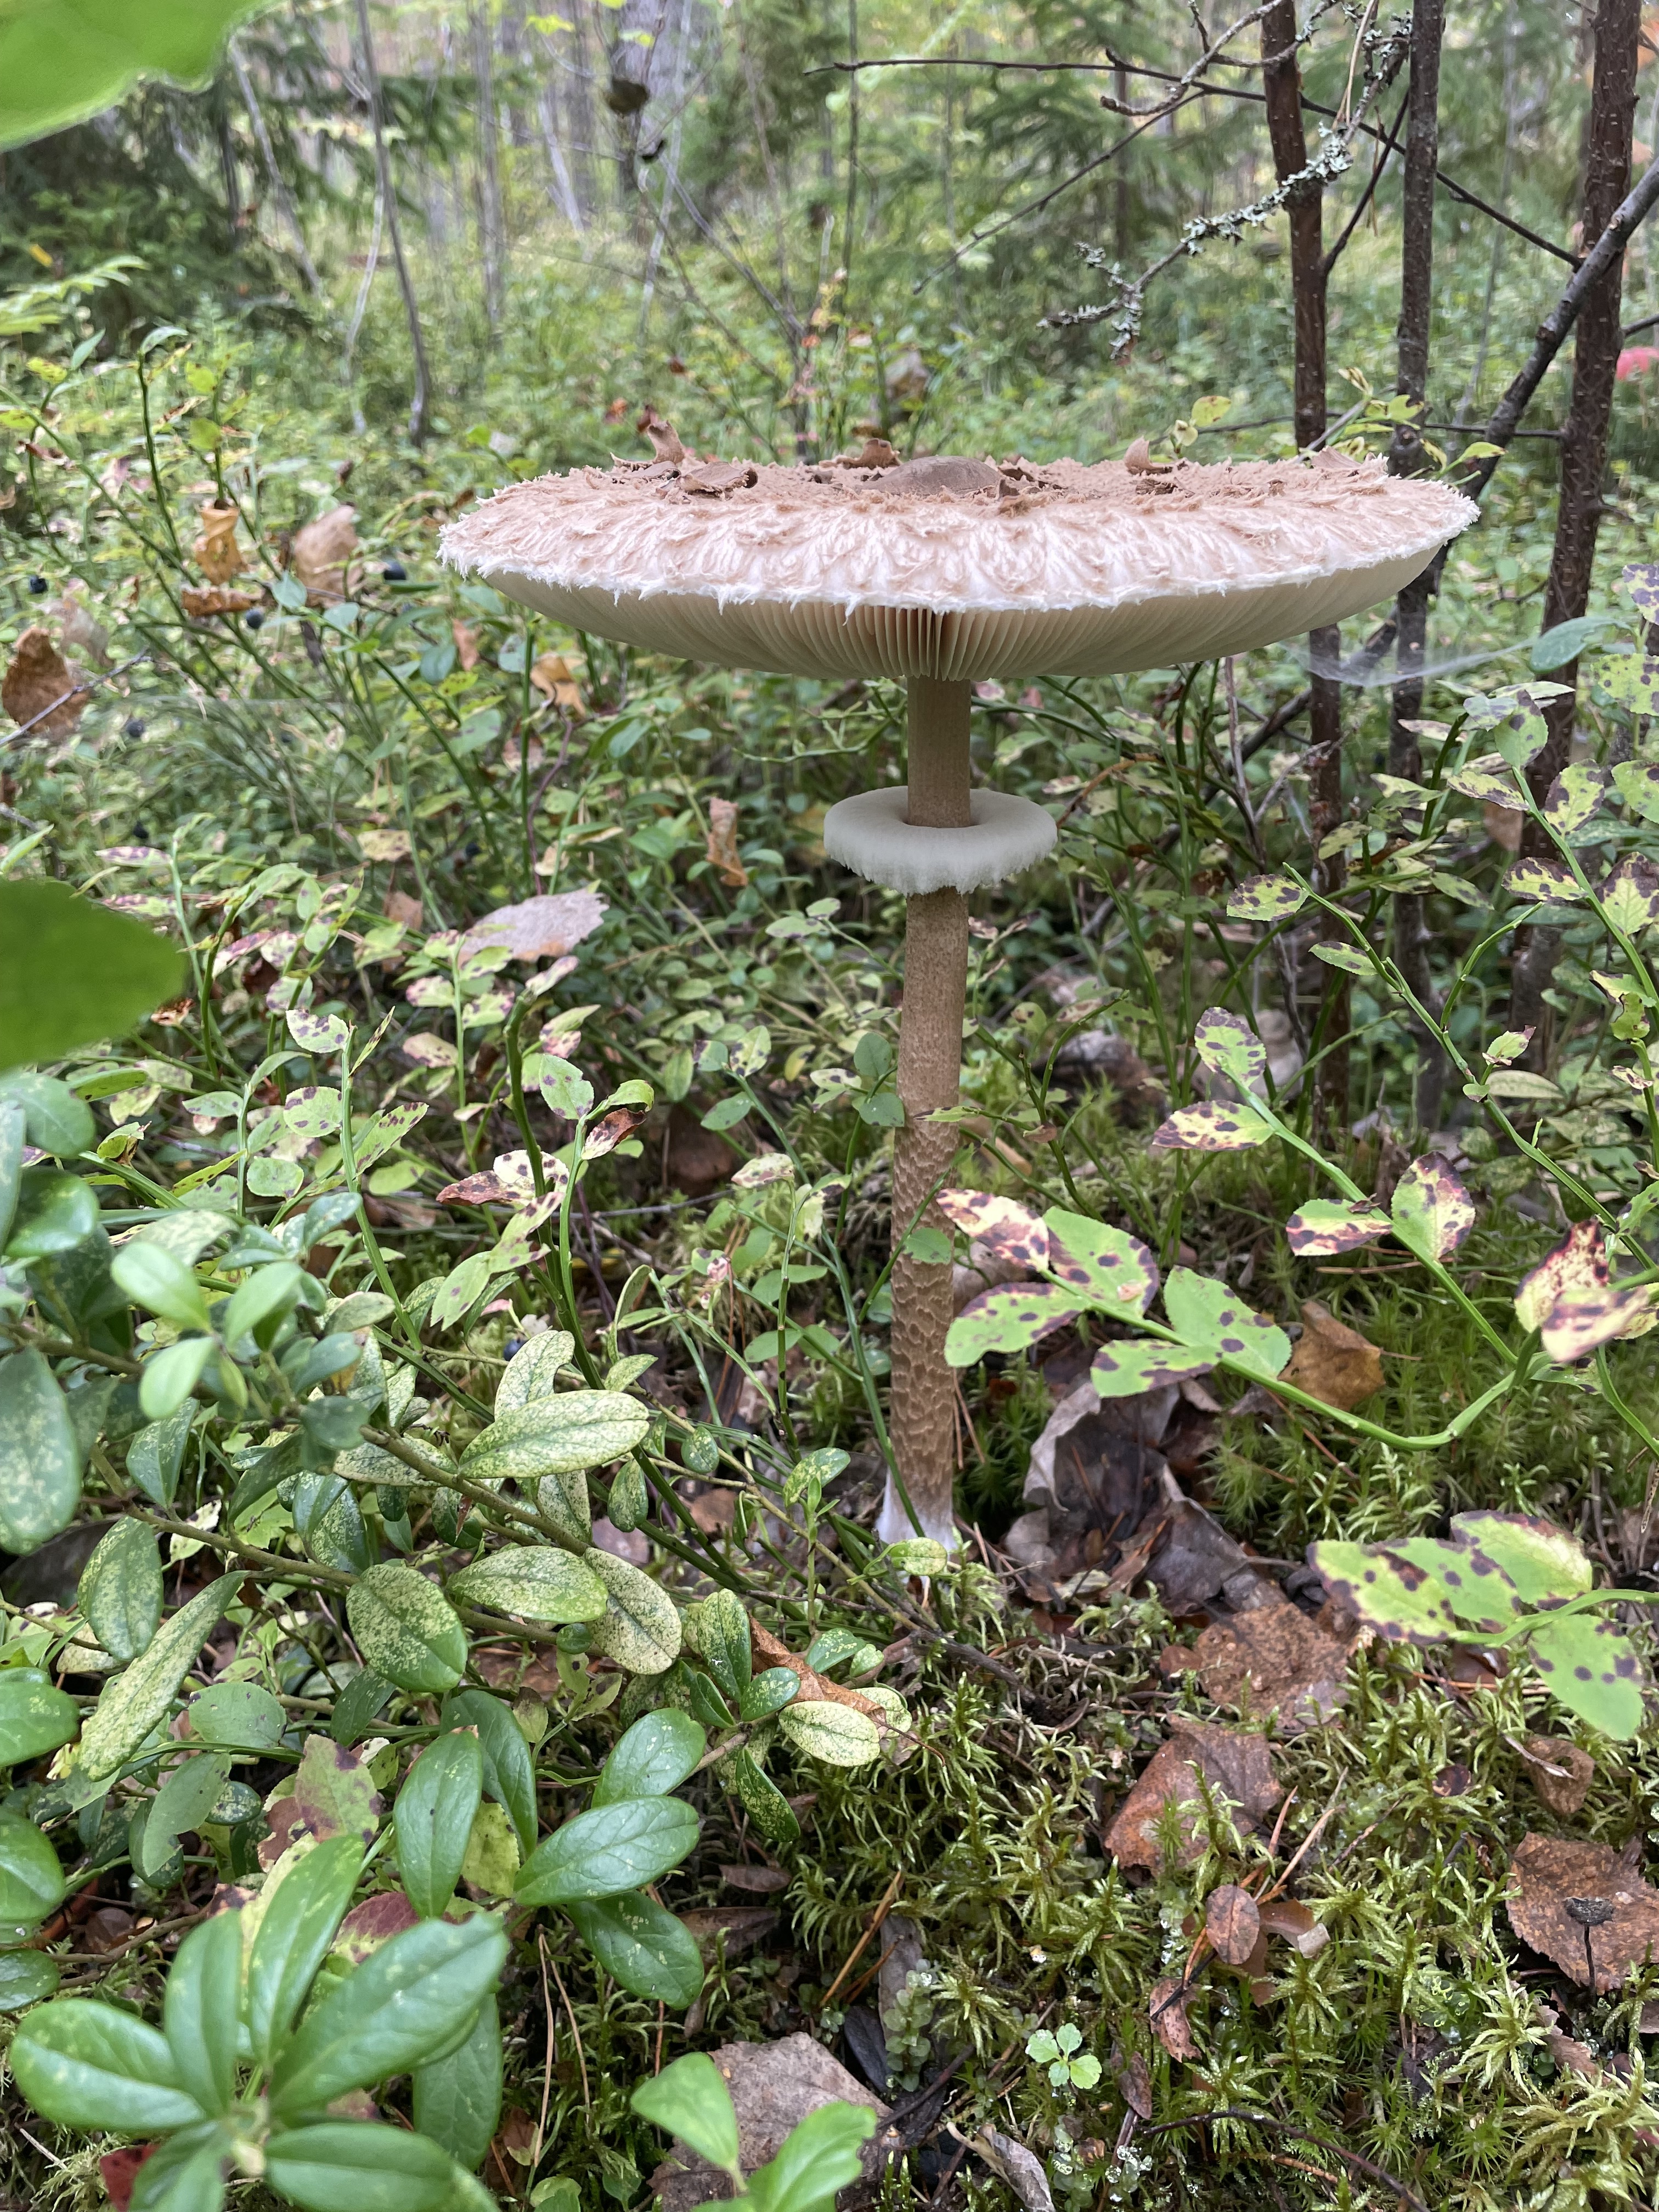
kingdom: Fungi
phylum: Basidiomycota
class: Agaricomycetes
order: Agaricales
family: Agaricaceae
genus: Macrolepiota
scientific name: Macrolepiota procera
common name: Parasol
